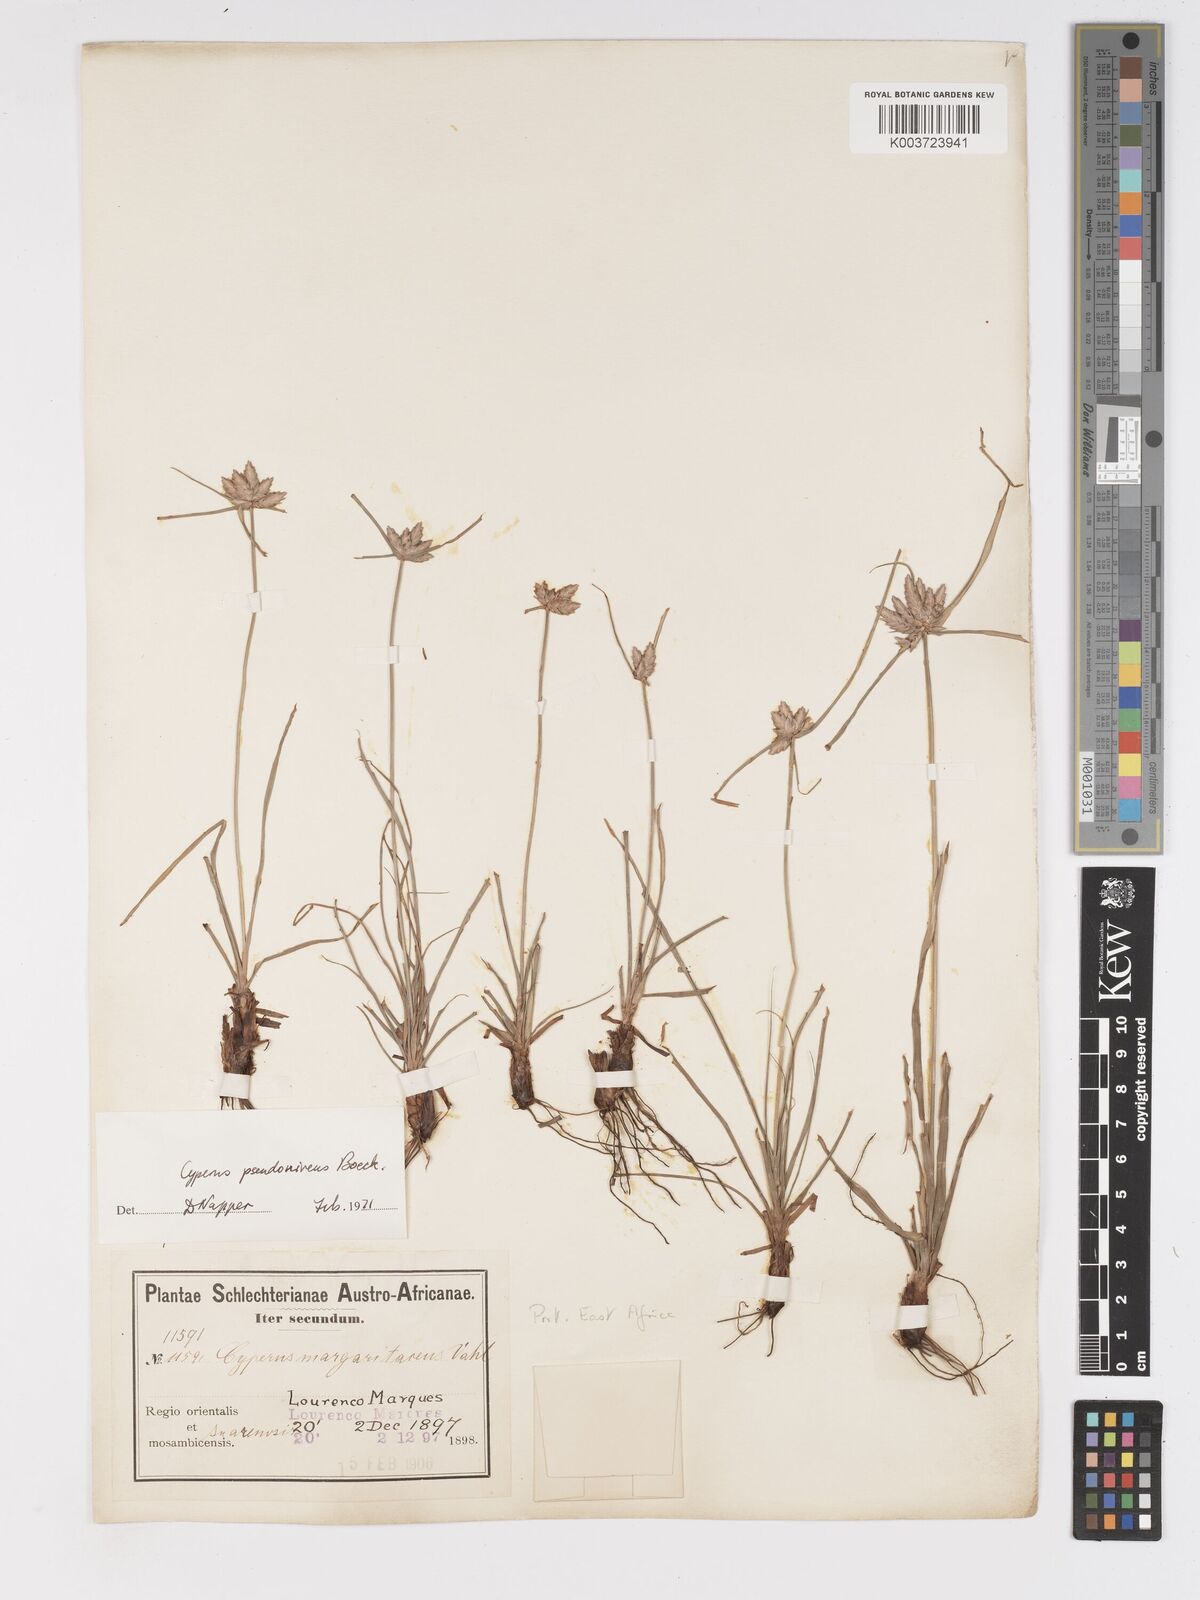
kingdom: Plantae
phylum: Tracheophyta
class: Liliopsida
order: Poales
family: Cyperaceae
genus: Cyperus
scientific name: Cyperus margaritaceus
